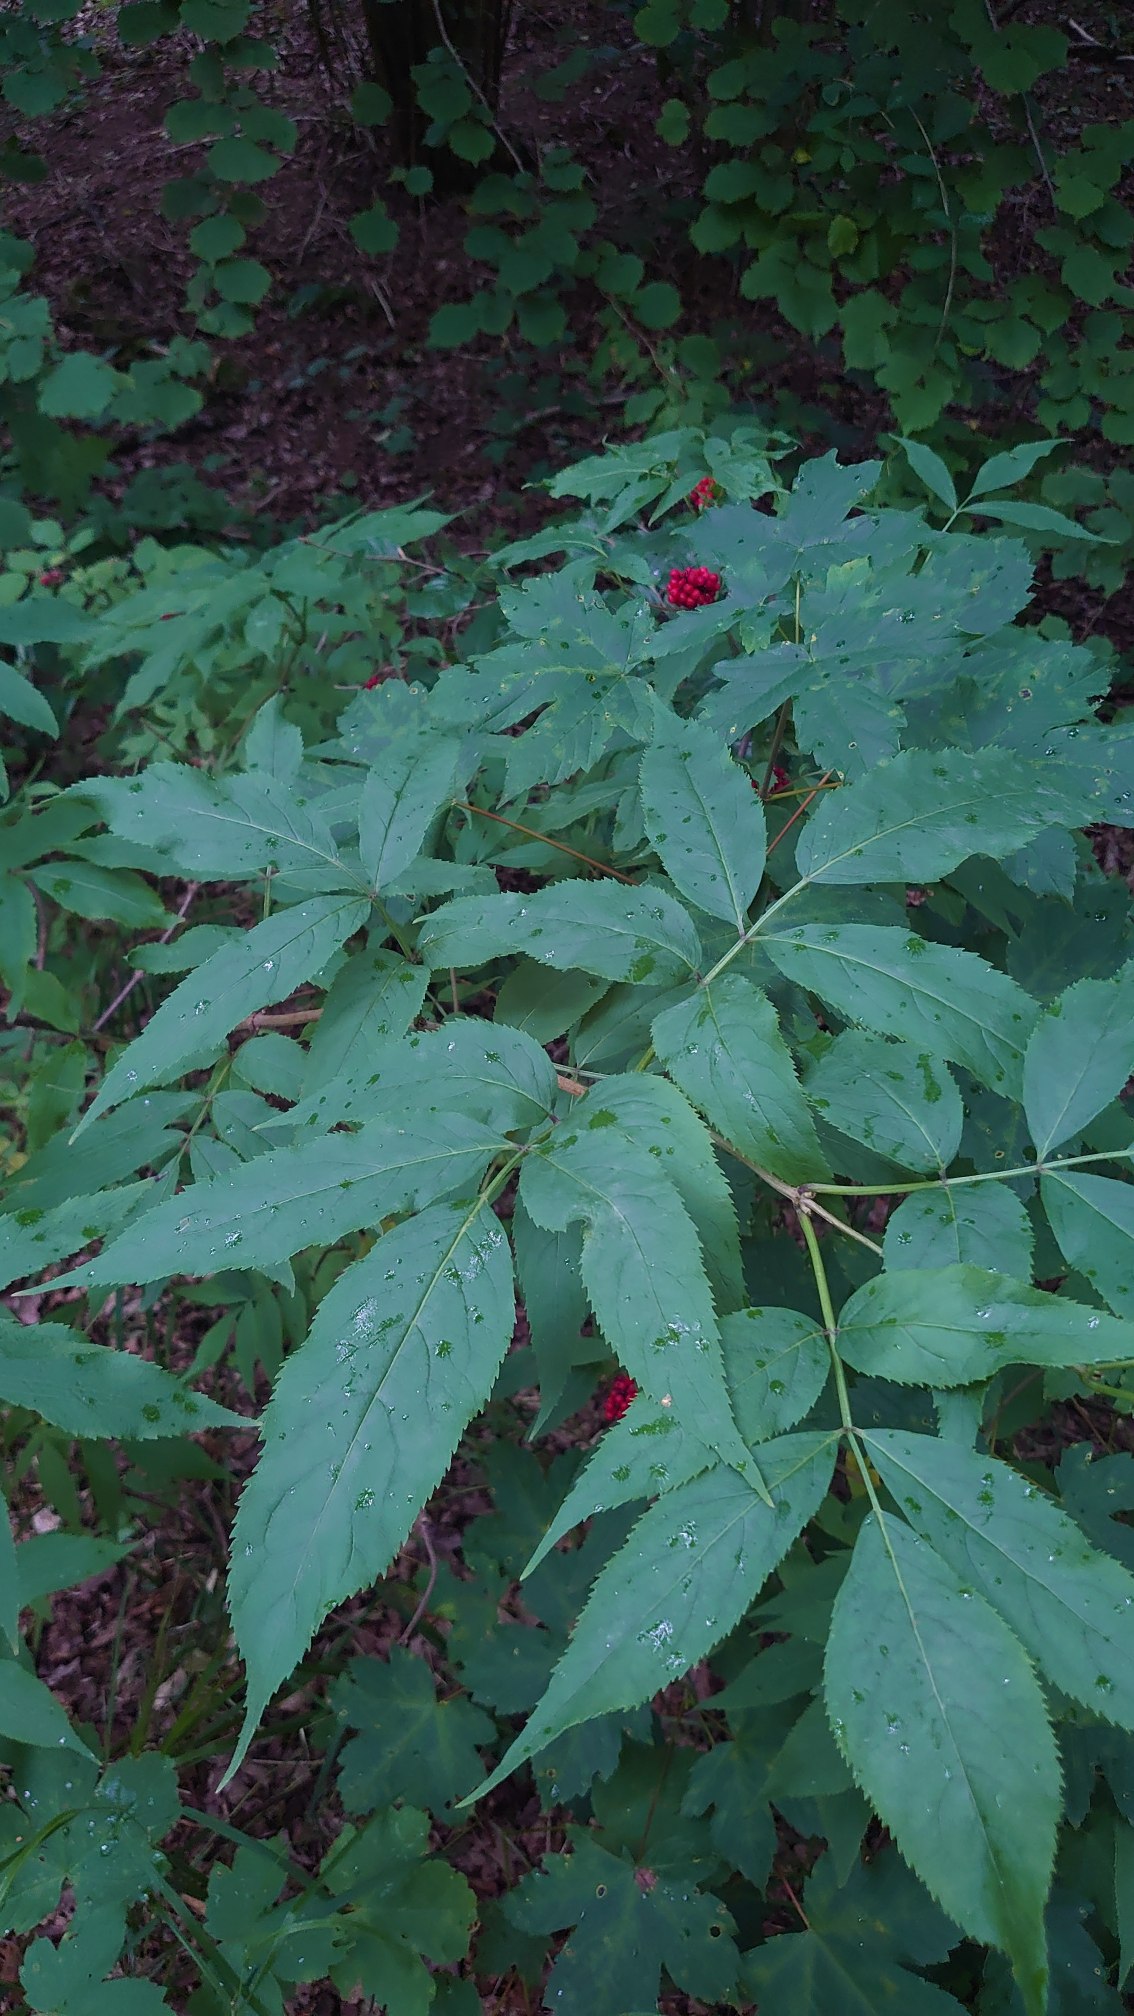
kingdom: Plantae
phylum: Tracheophyta
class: Magnoliopsida
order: Dipsacales
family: Viburnaceae
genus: Sambucus
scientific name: Sambucus racemosa
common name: Drue-hyld
